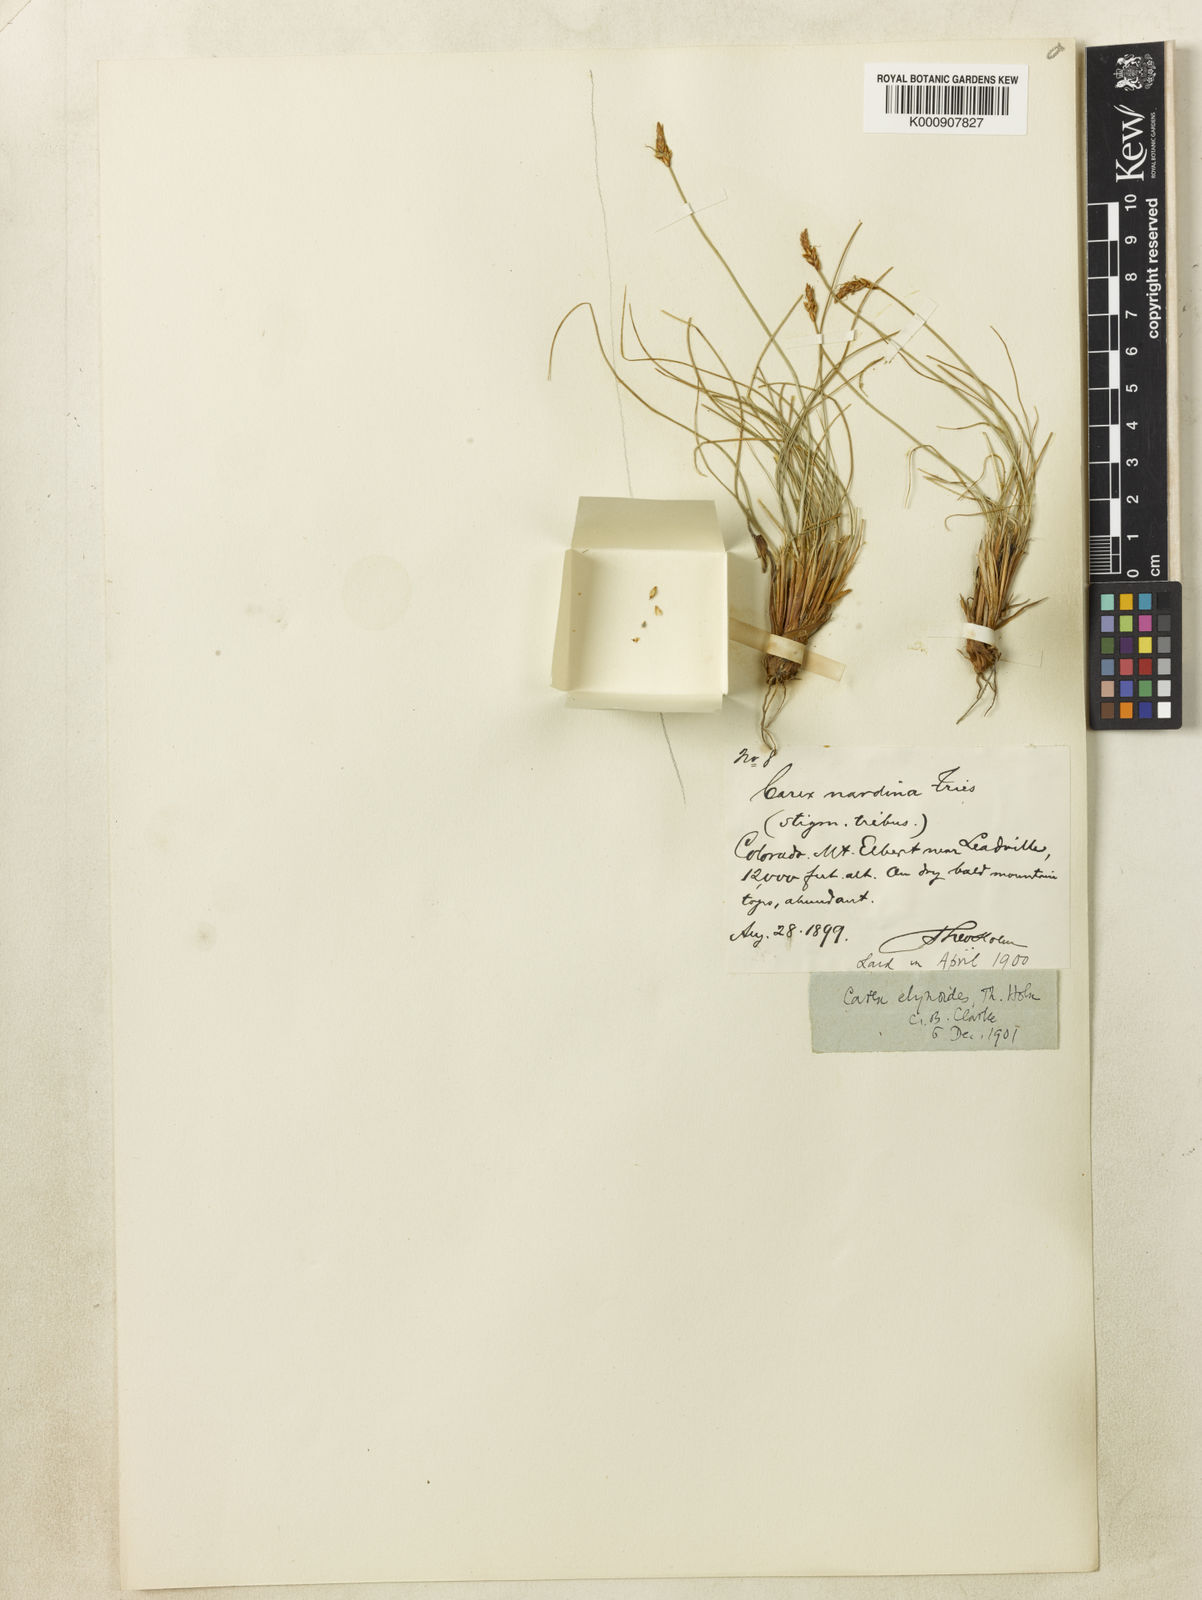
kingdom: Plantae
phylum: Tracheophyta
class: Liliopsida
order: Poales
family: Cyperaceae
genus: Carex
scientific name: Carex elynoides
